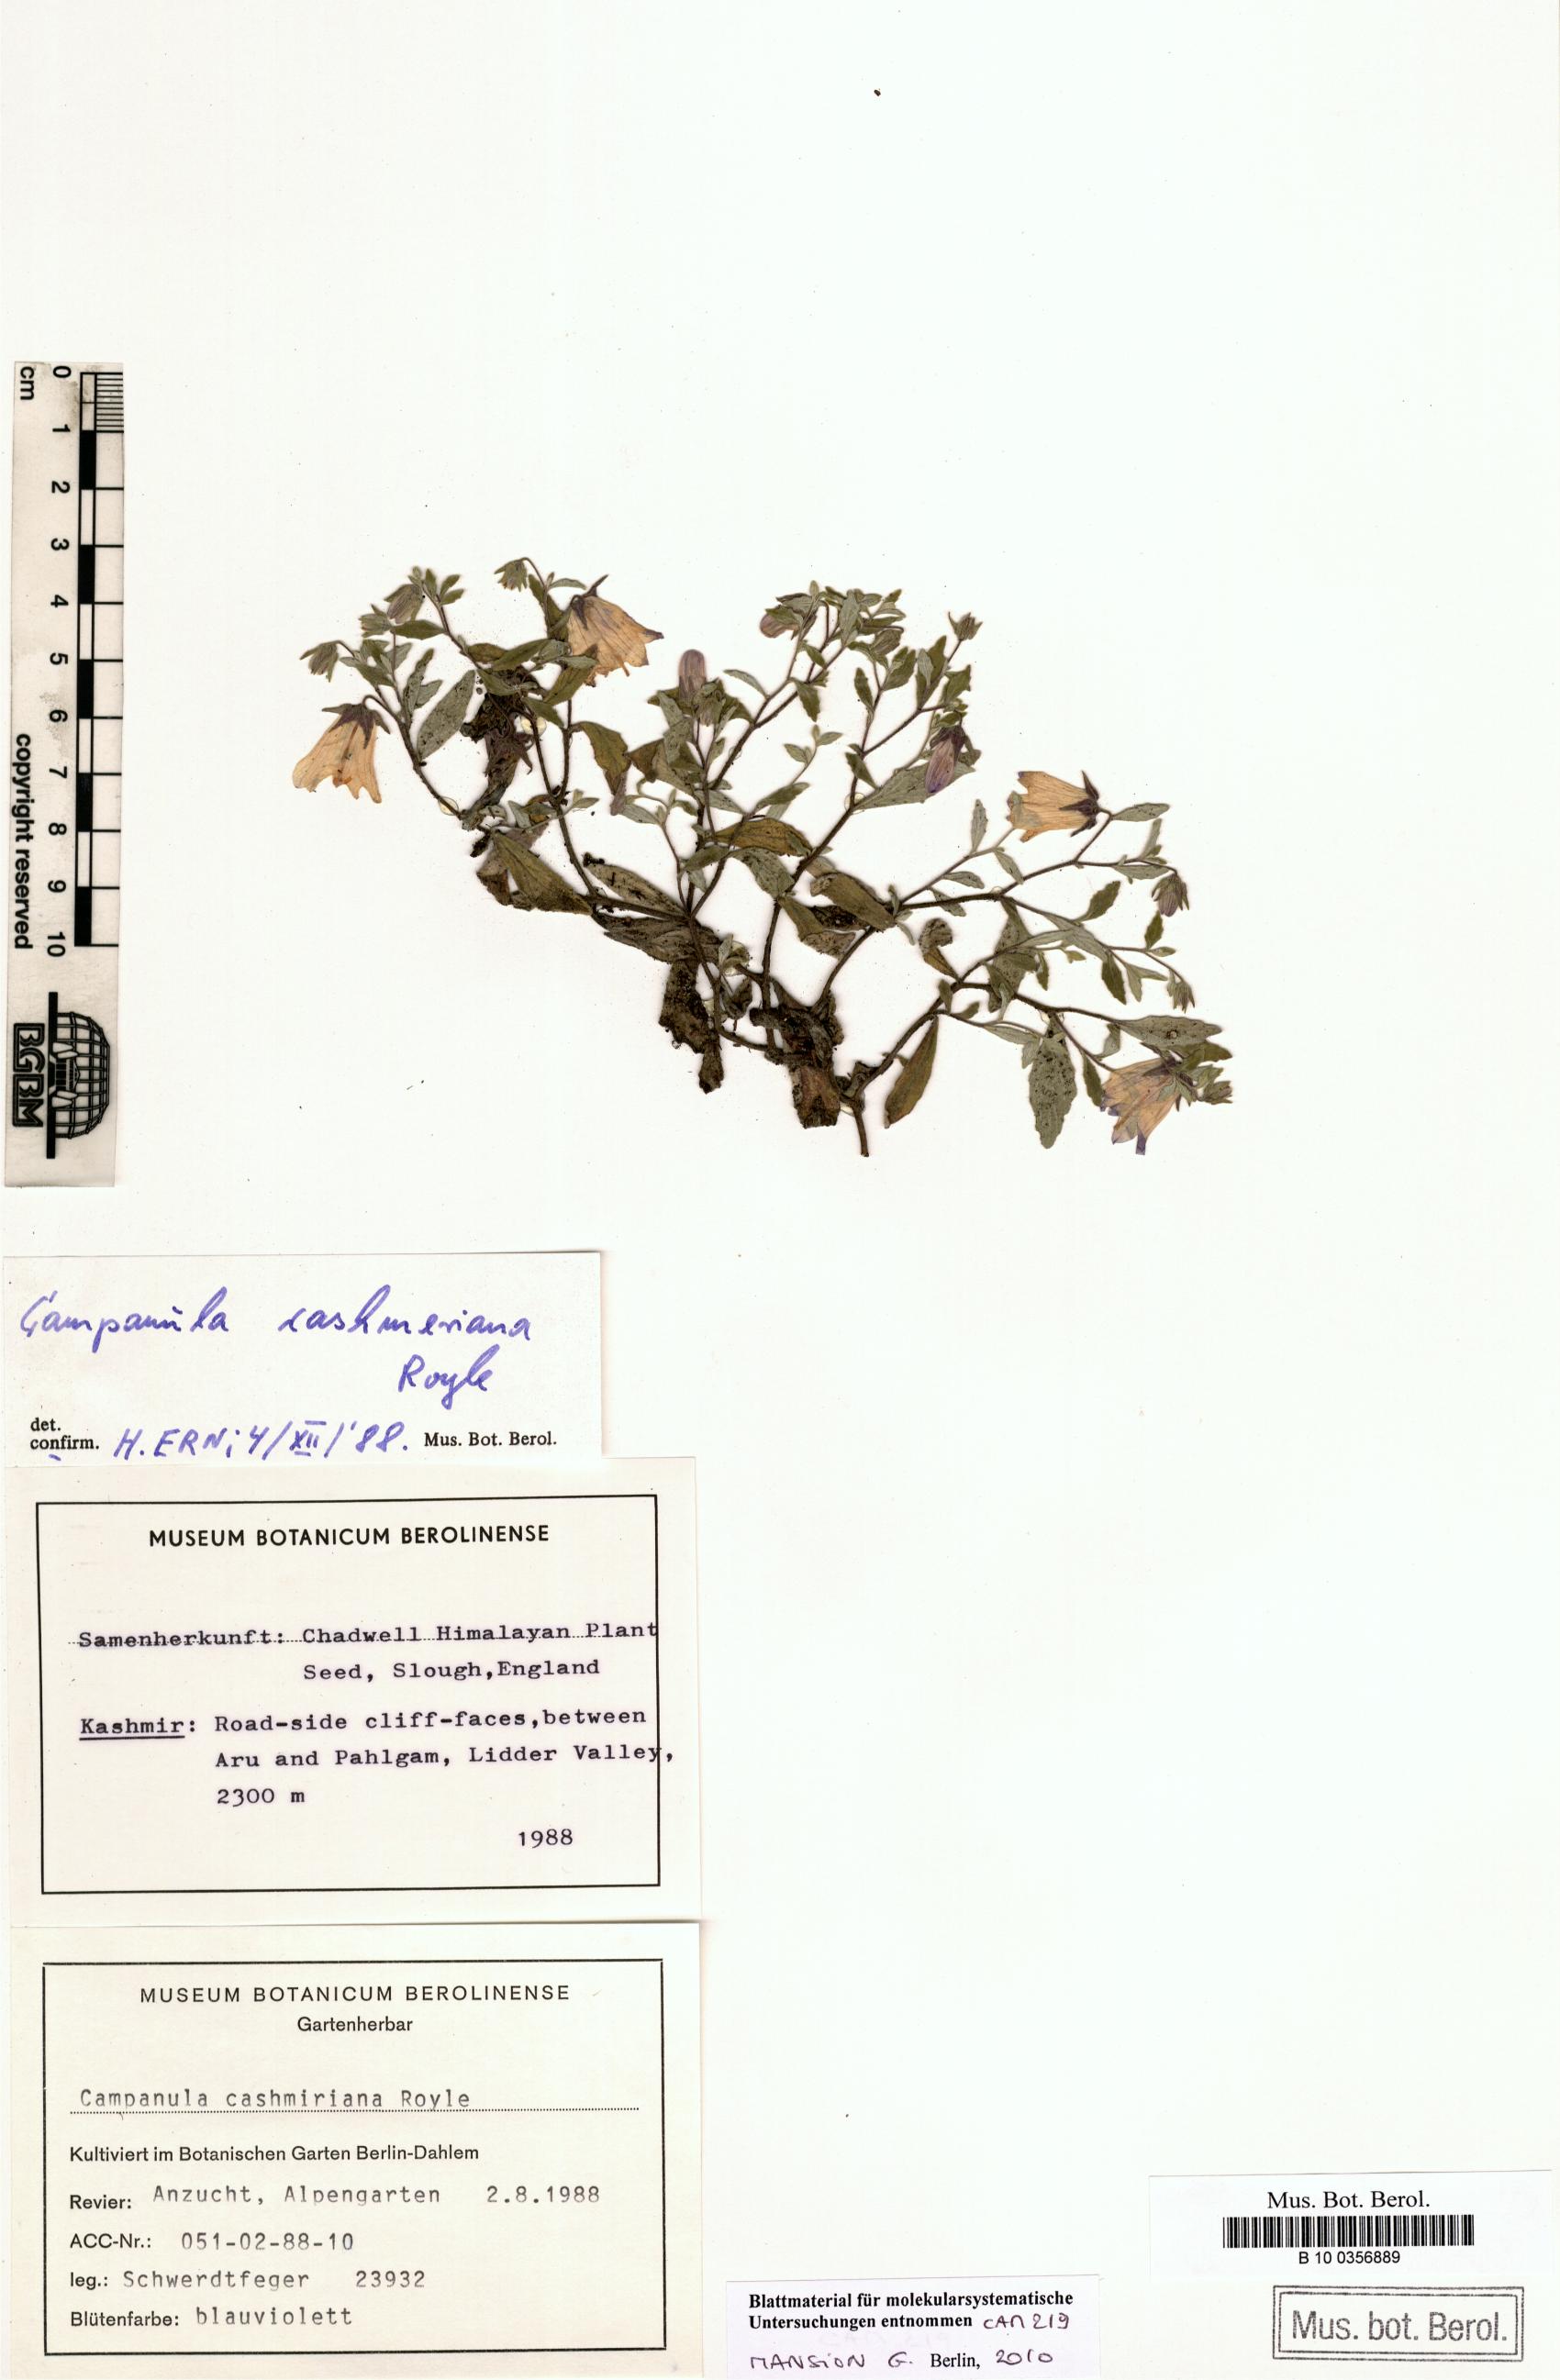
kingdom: Plantae
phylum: Tracheophyta
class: Magnoliopsida
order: Asterales
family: Campanulaceae
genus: Campanula
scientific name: Campanula cashmeriana
